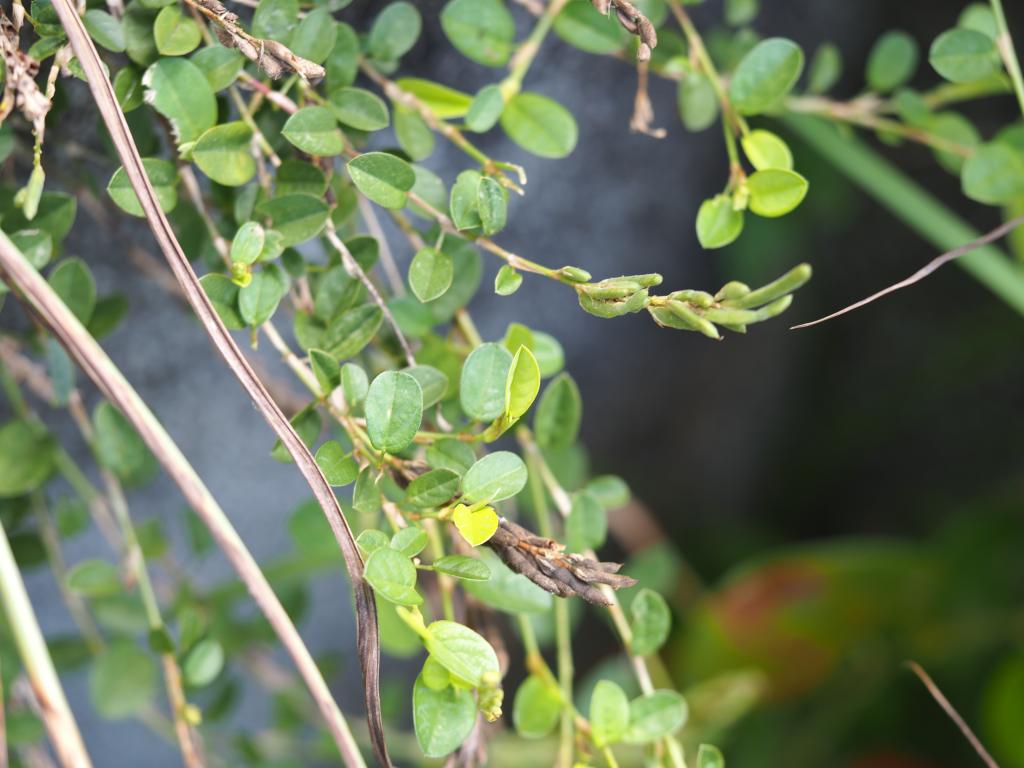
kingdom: Plantae
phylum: Tracheophyta
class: Magnoliopsida
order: Fabales
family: Fabaceae
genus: Alysicarpus
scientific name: Alysicarpus vaginalis
